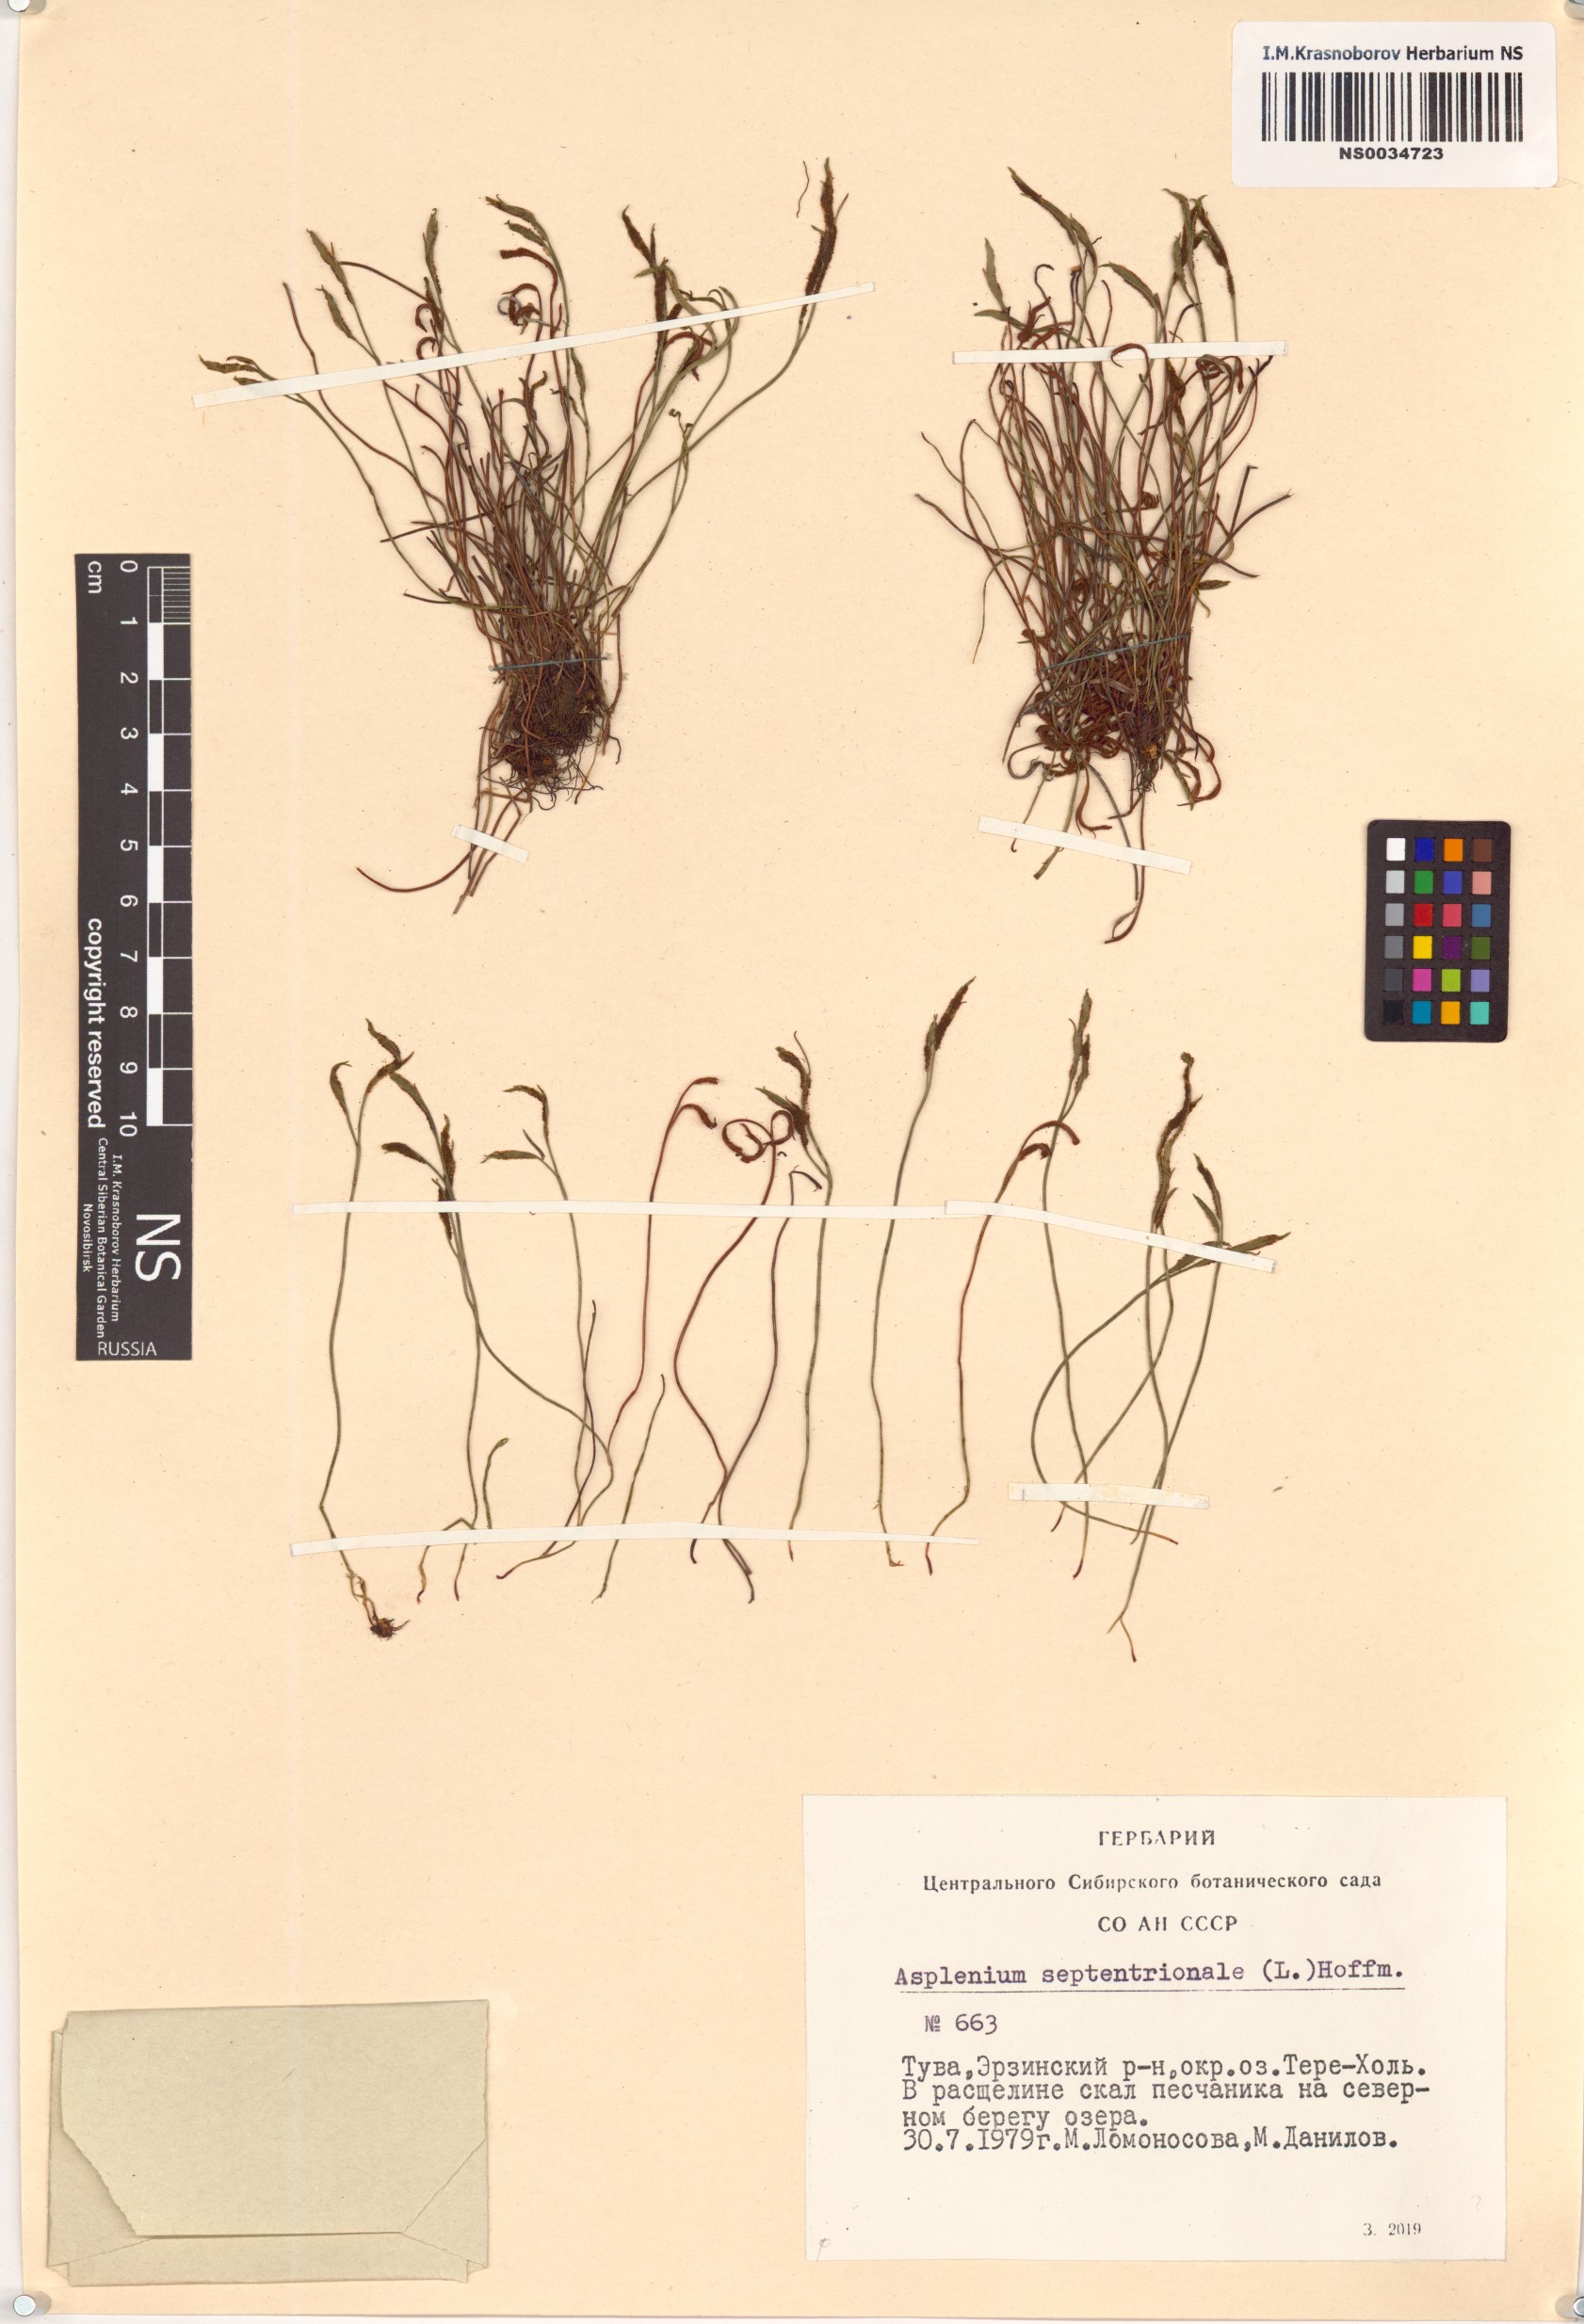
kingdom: Plantae
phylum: Tracheophyta
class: Polypodiopsida
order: Polypodiales
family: Aspleniaceae
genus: Asplenium
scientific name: Asplenium septentrionale
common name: Forked spleenwort
